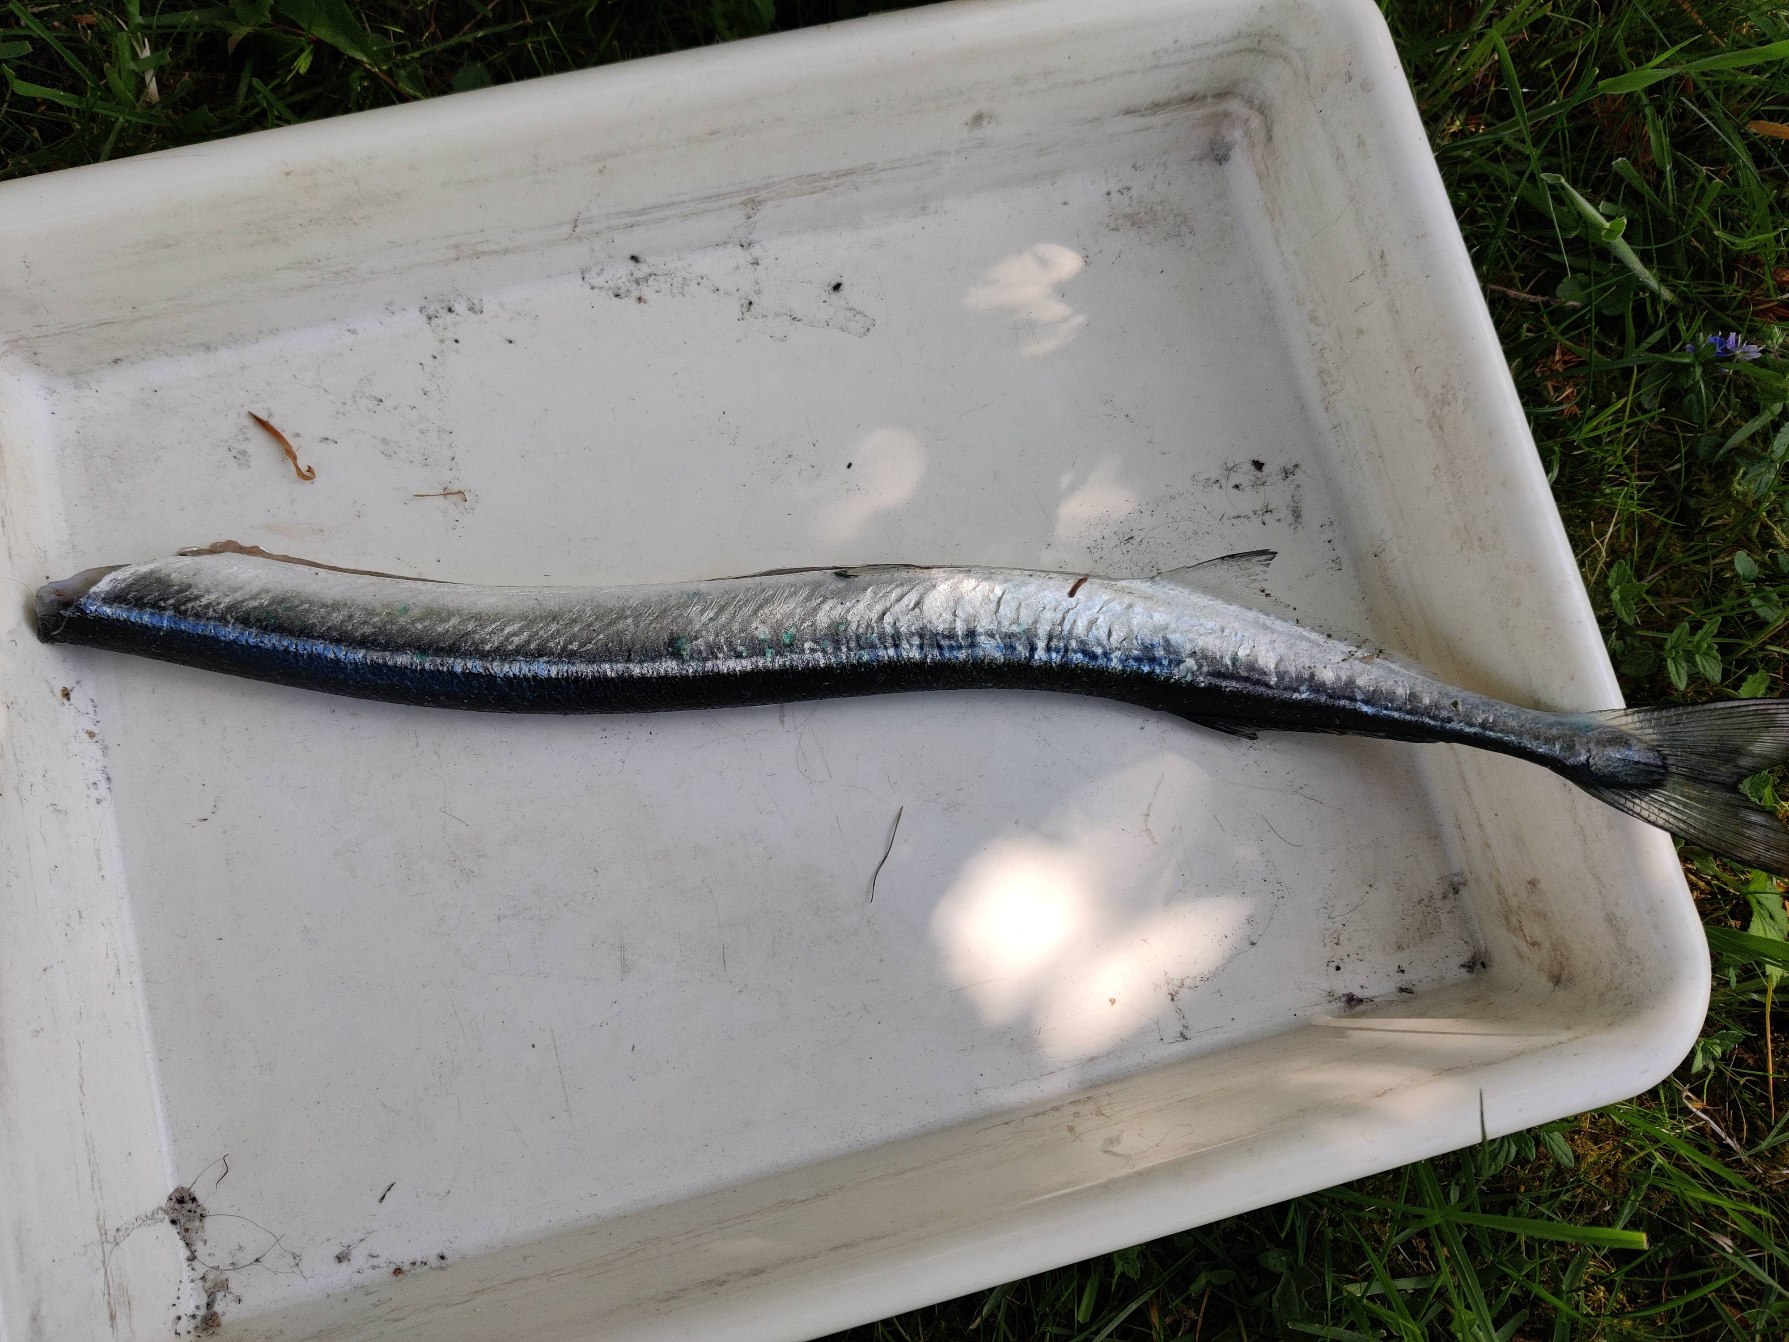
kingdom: Animalia
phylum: Chordata
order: Beloniformes
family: Belonidae
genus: Belone
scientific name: Belone belone
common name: Hornfisk
